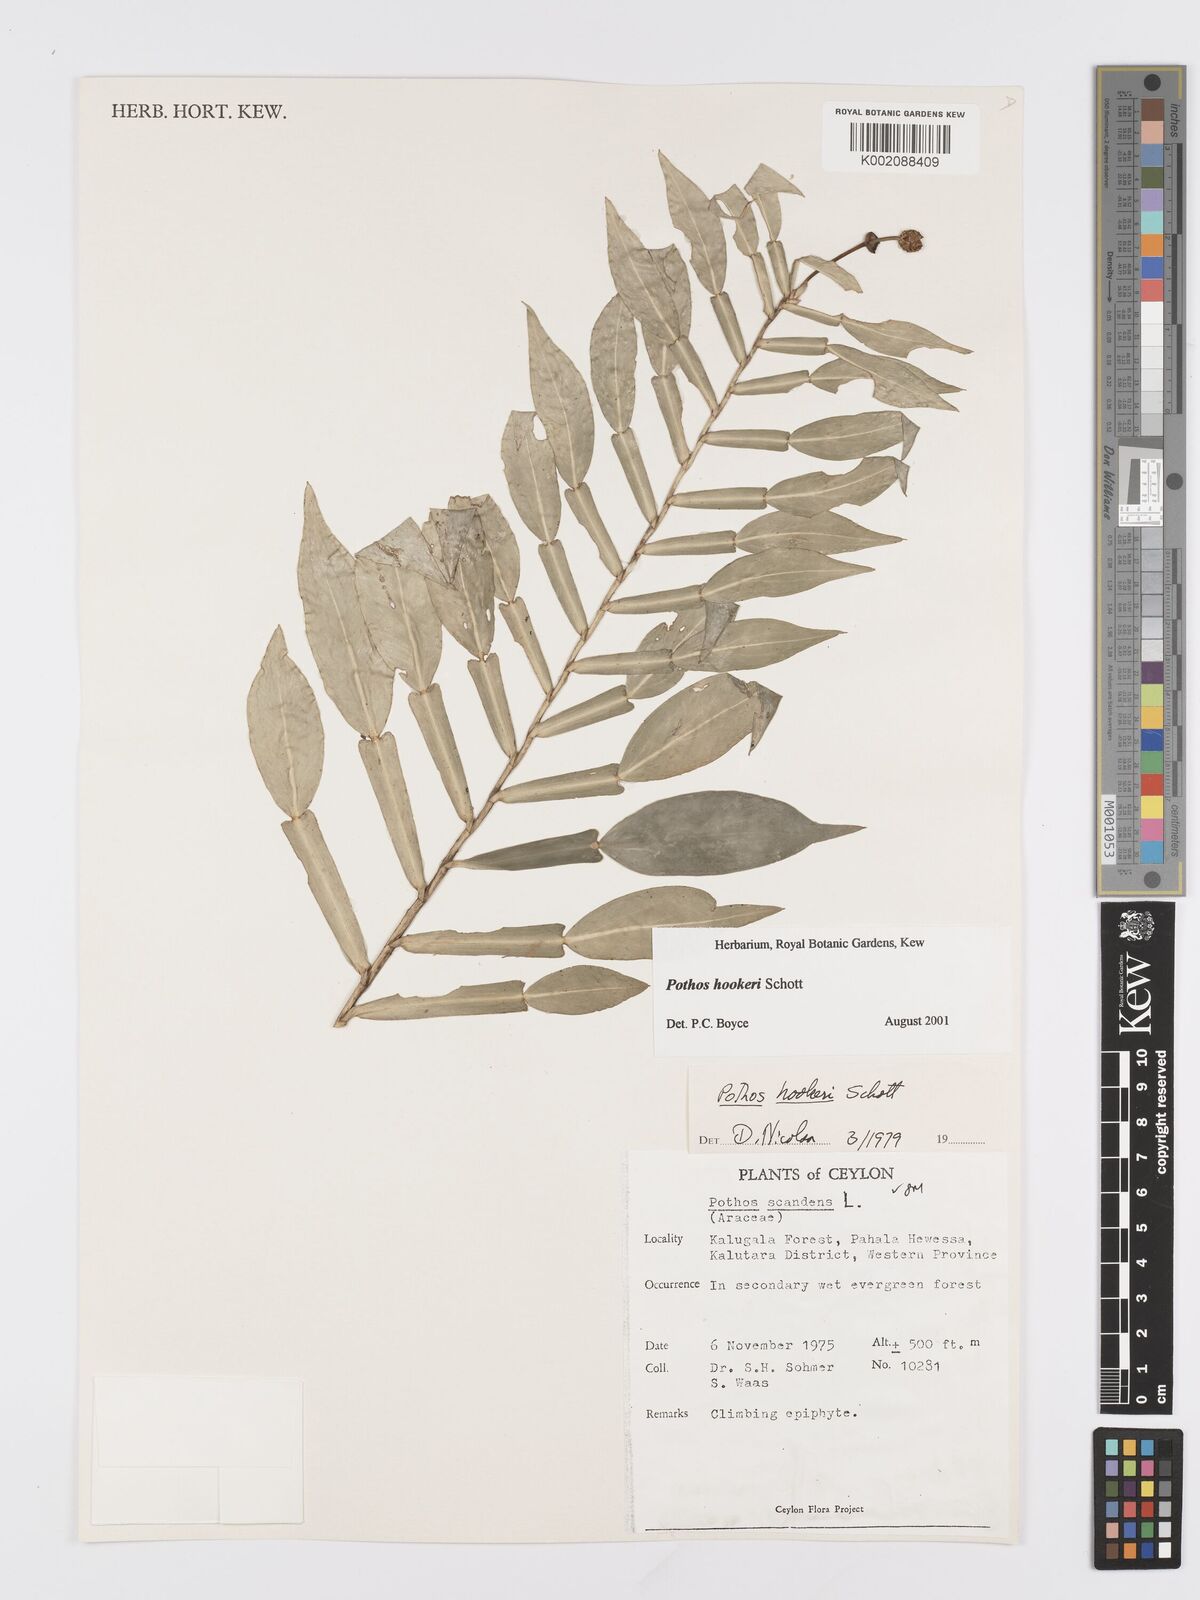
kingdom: Plantae
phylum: Tracheophyta
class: Liliopsida
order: Alismatales
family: Araceae
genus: Pothos
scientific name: Pothos hookeri
